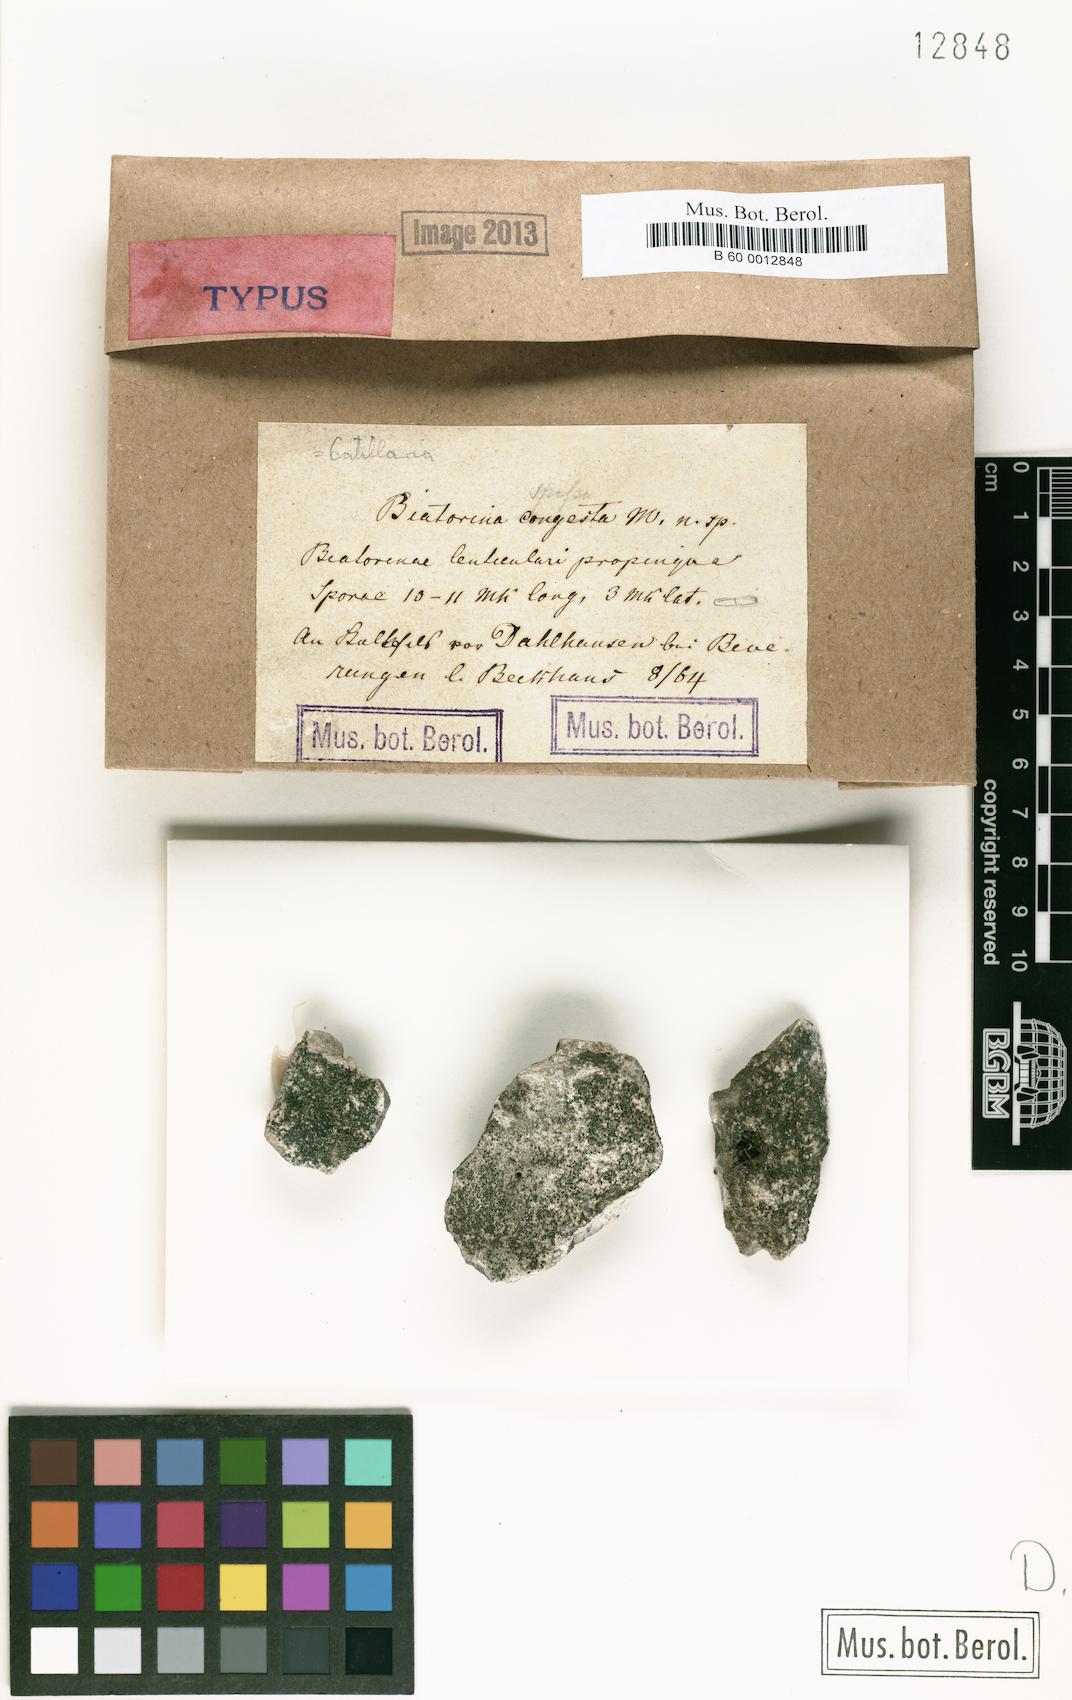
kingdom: Fungi
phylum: Ascomycota
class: Lecanoromycetes
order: Lecanorales
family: Catillariaceae
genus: Catillaria
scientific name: Catillaria
